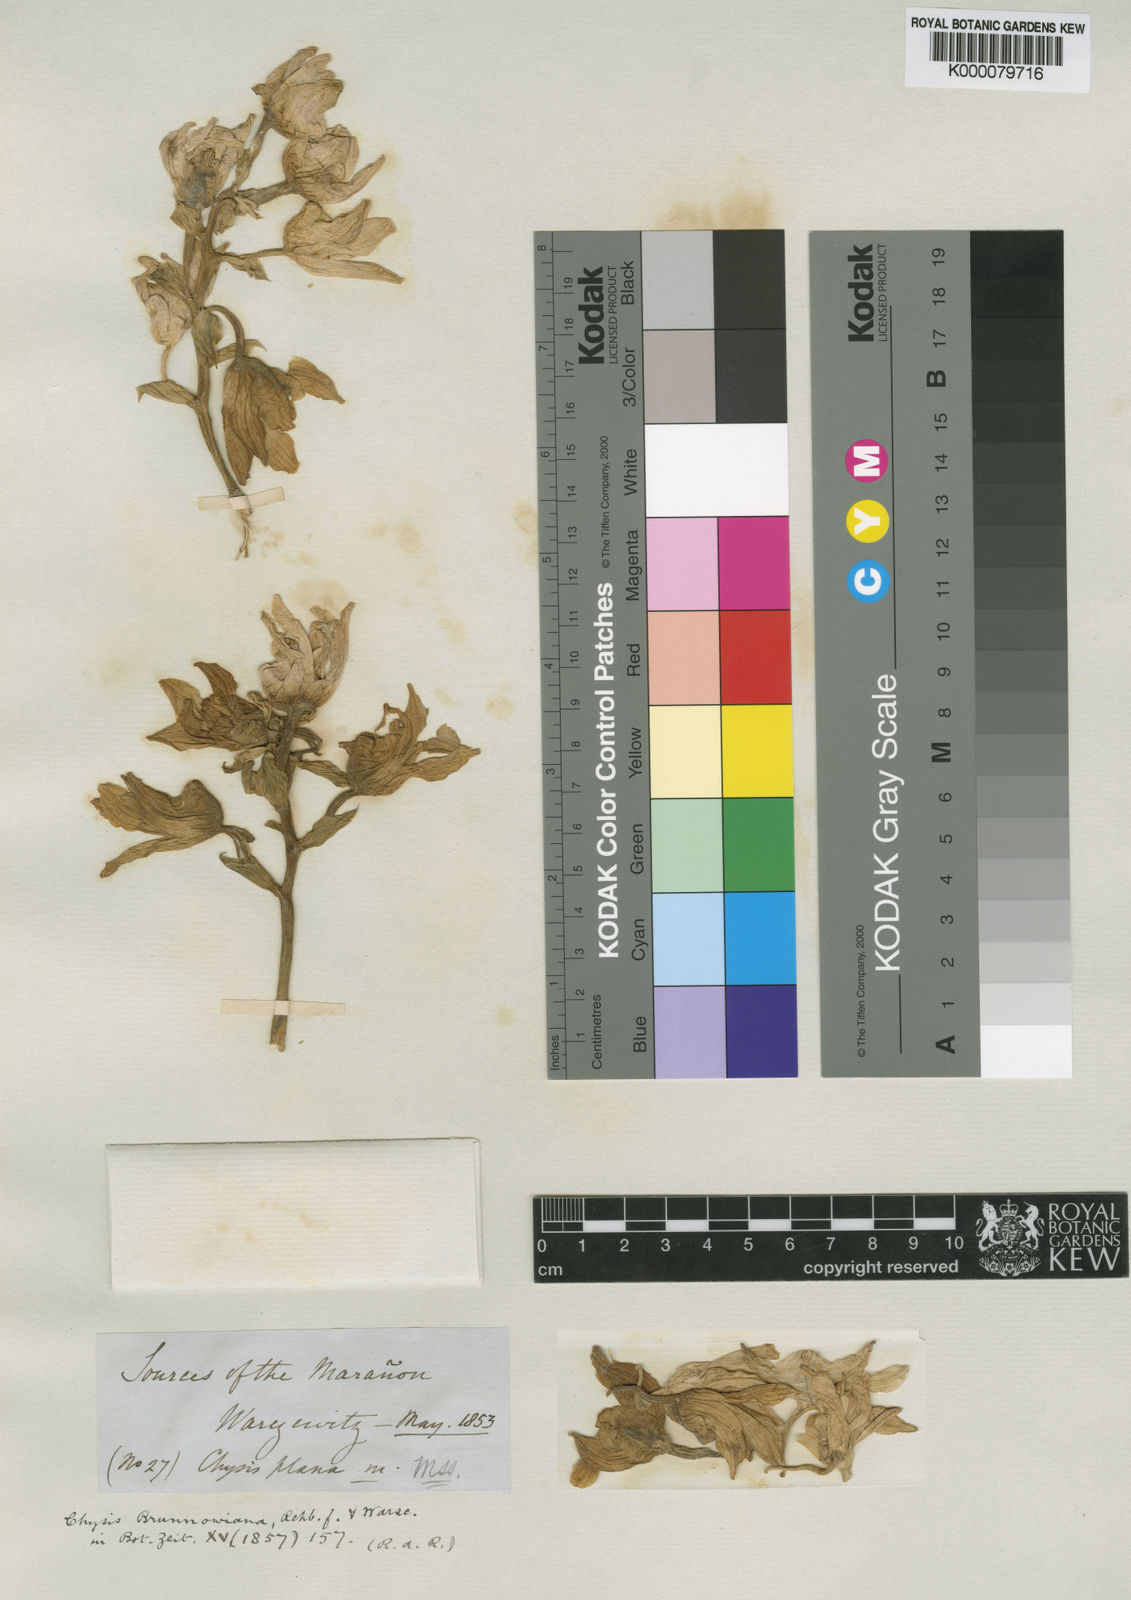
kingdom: Plantae
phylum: Tracheophyta
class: Liliopsida
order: Asparagales
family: Orchidaceae
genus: Chysis
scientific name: Chysis bruennowiana
